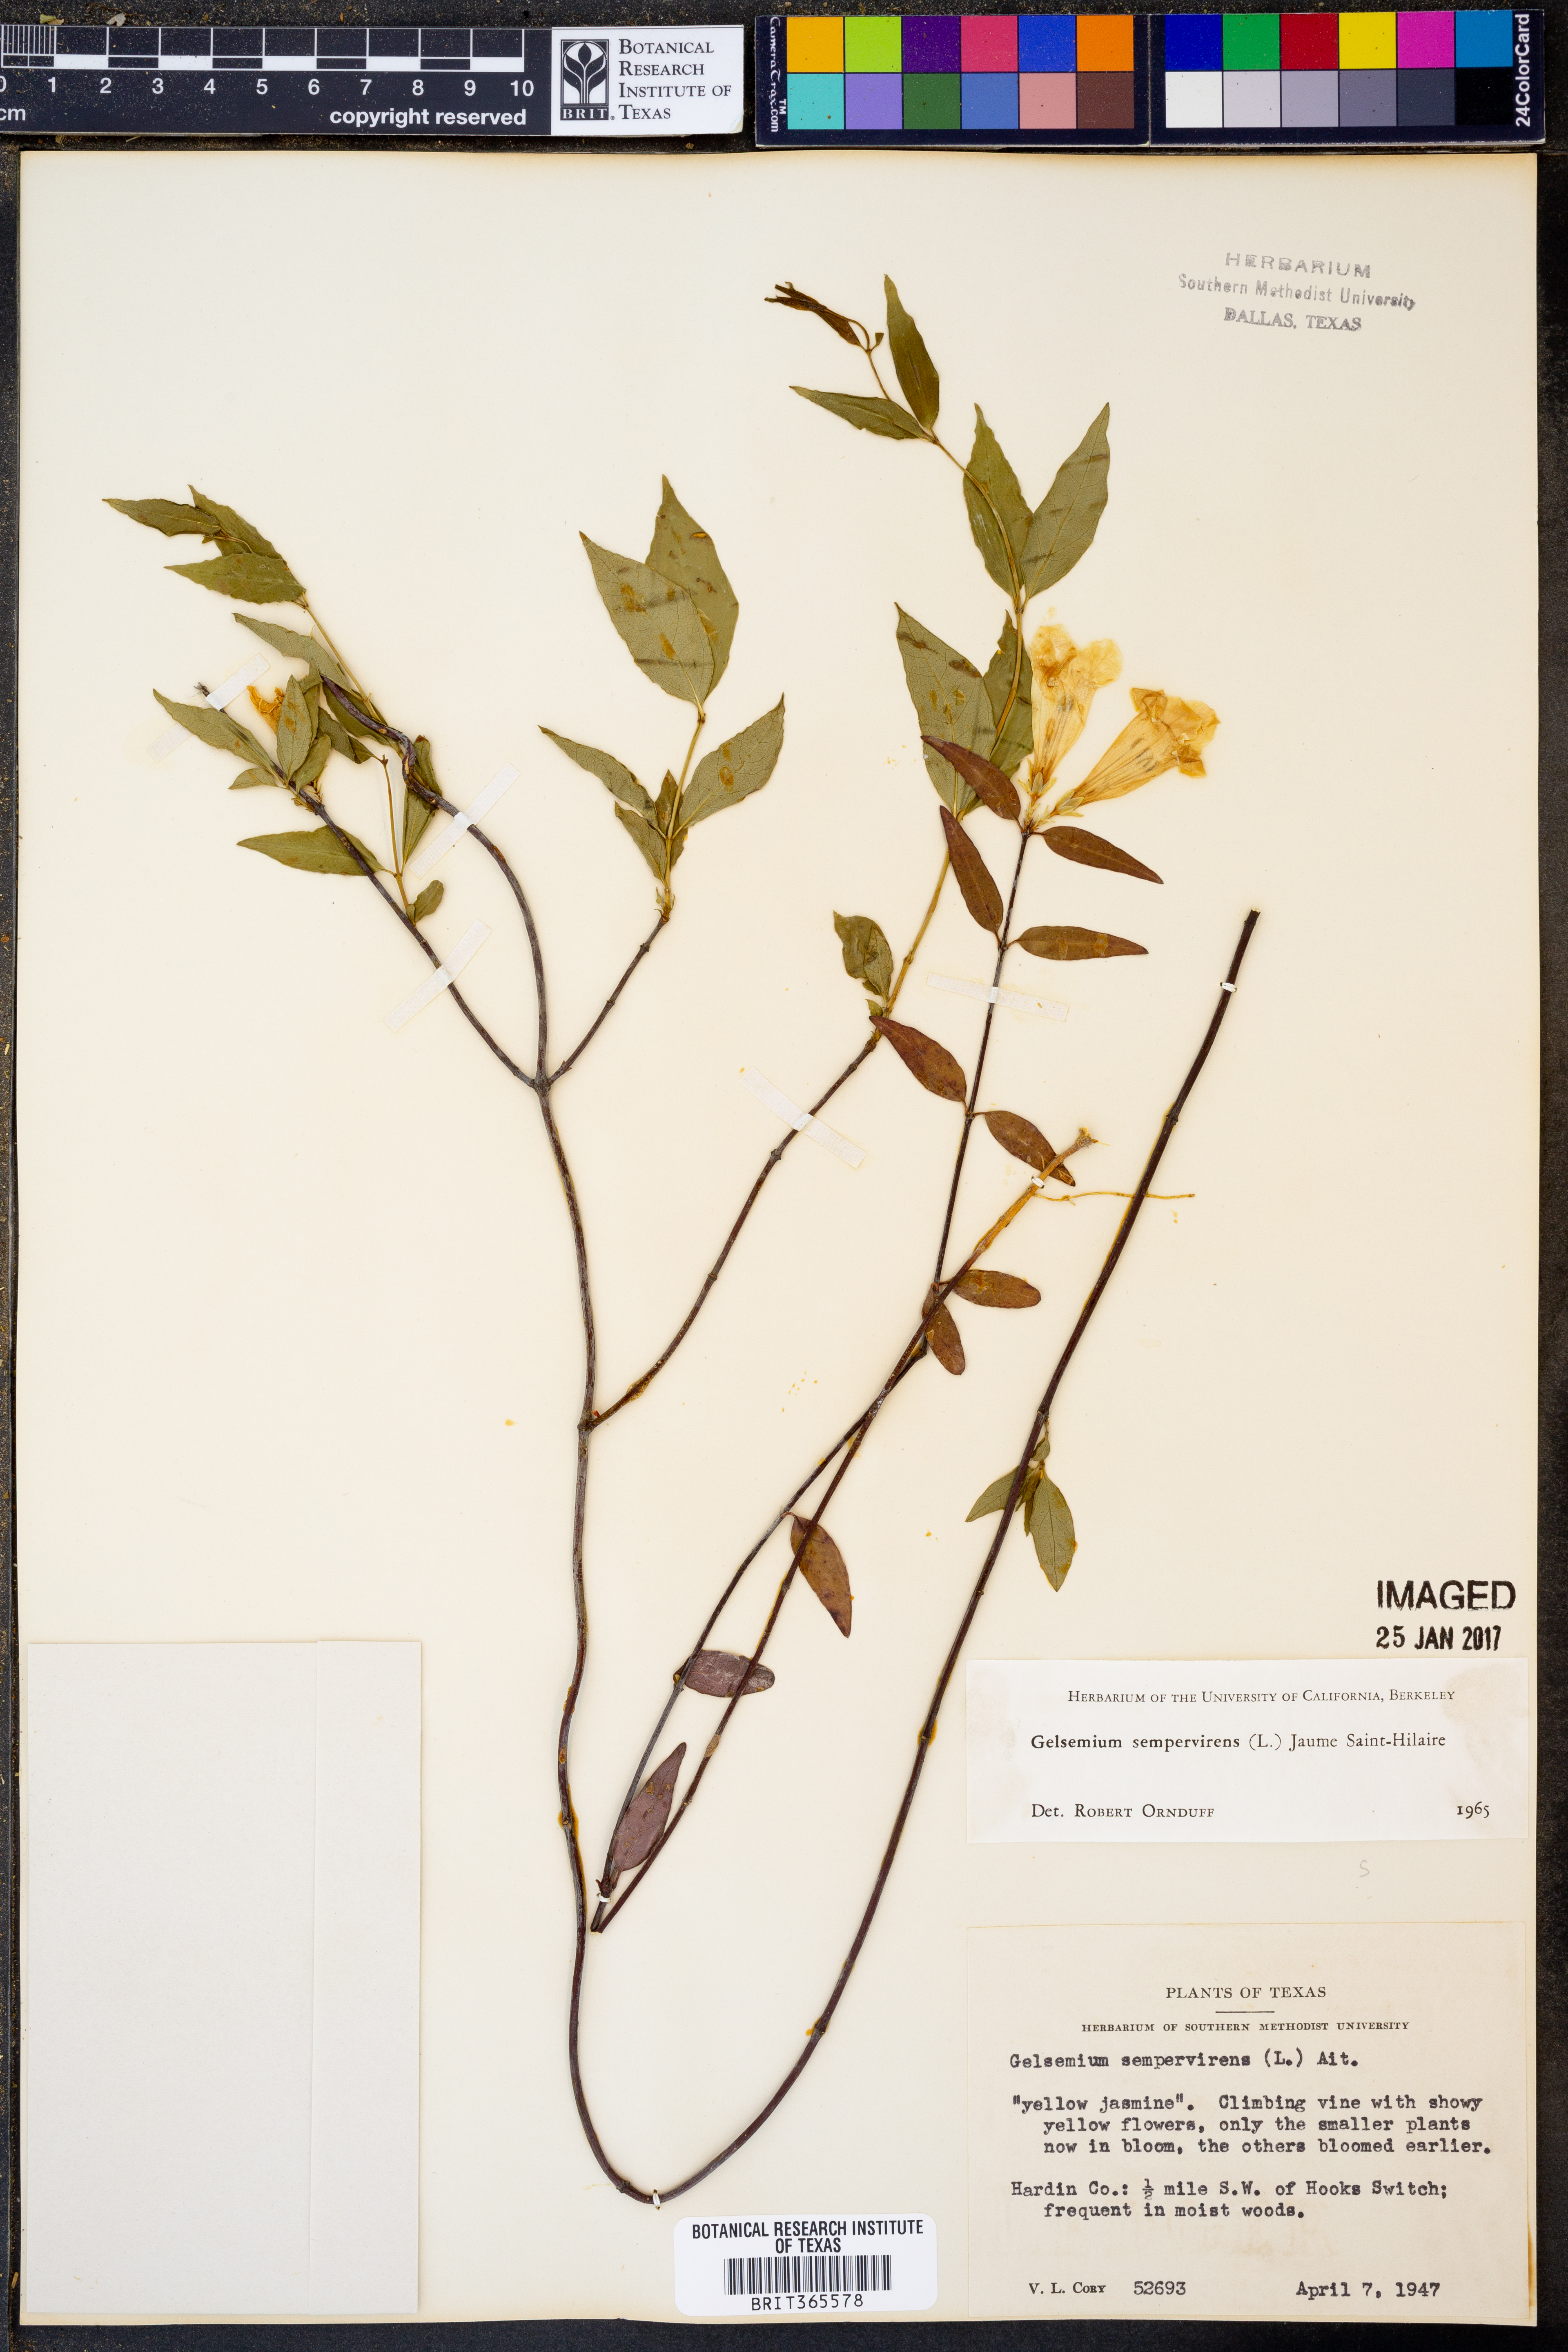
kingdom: Plantae
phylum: Tracheophyta
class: Magnoliopsida
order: Gentianales
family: Gelsemiaceae
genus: Gelsemium
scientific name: Gelsemium sempervirens
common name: Carolina-jasmine
